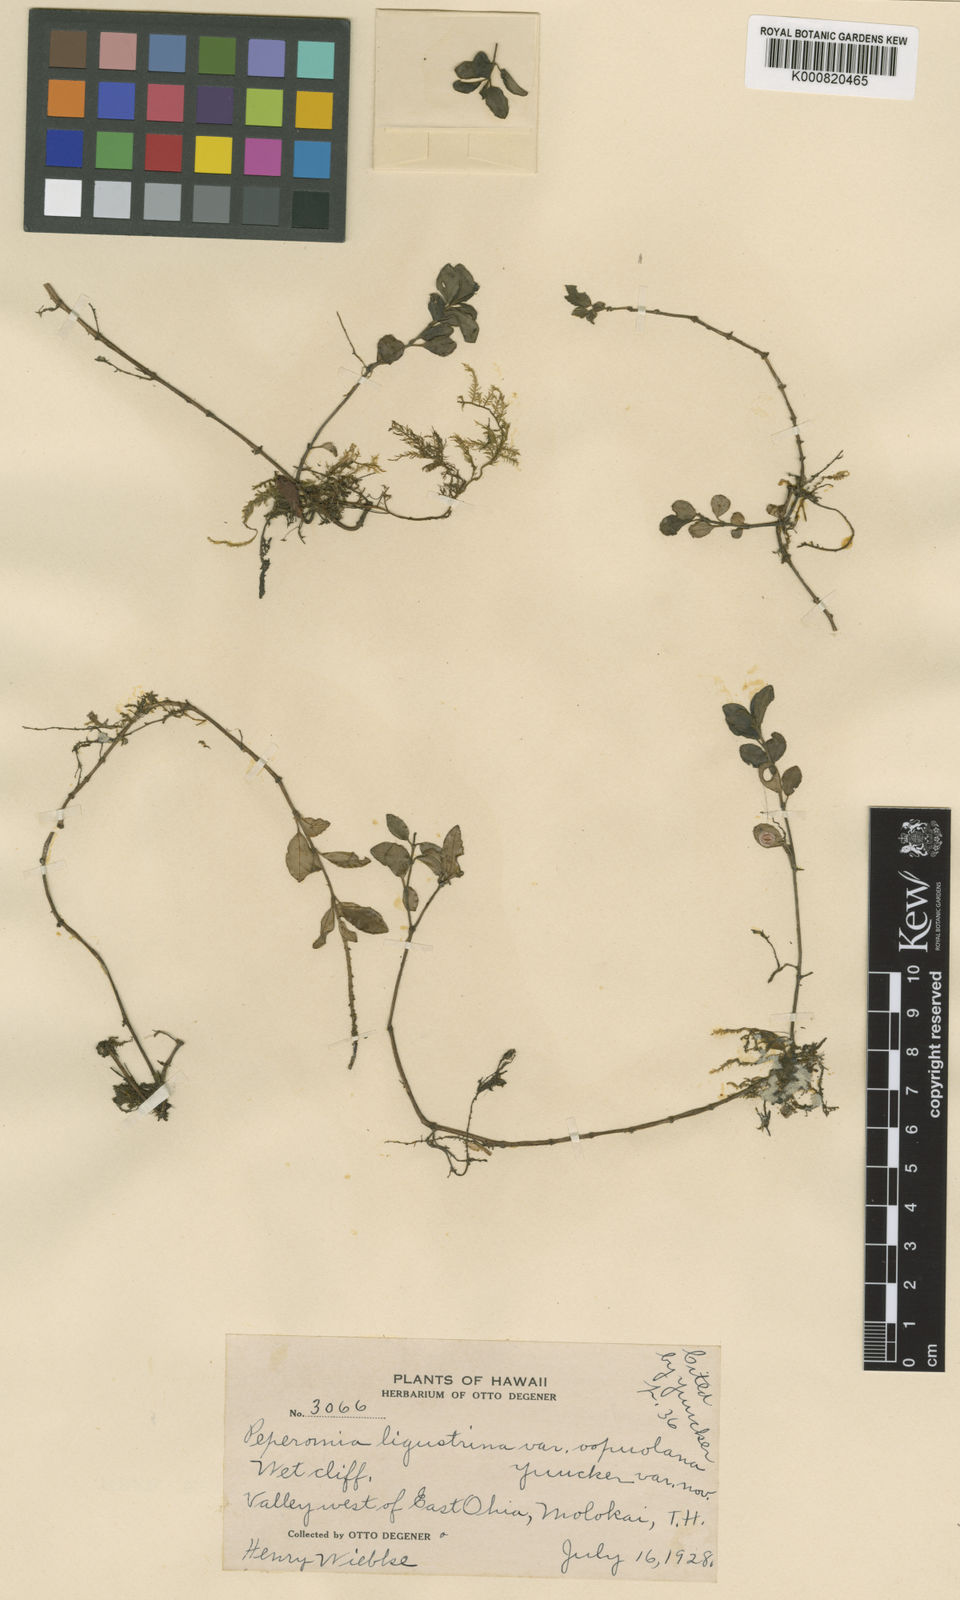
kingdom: Plantae
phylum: Tracheophyta
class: Magnoliopsida
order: Piperales
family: Piperaceae
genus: Peperomia
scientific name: Peperomia ligustrina
